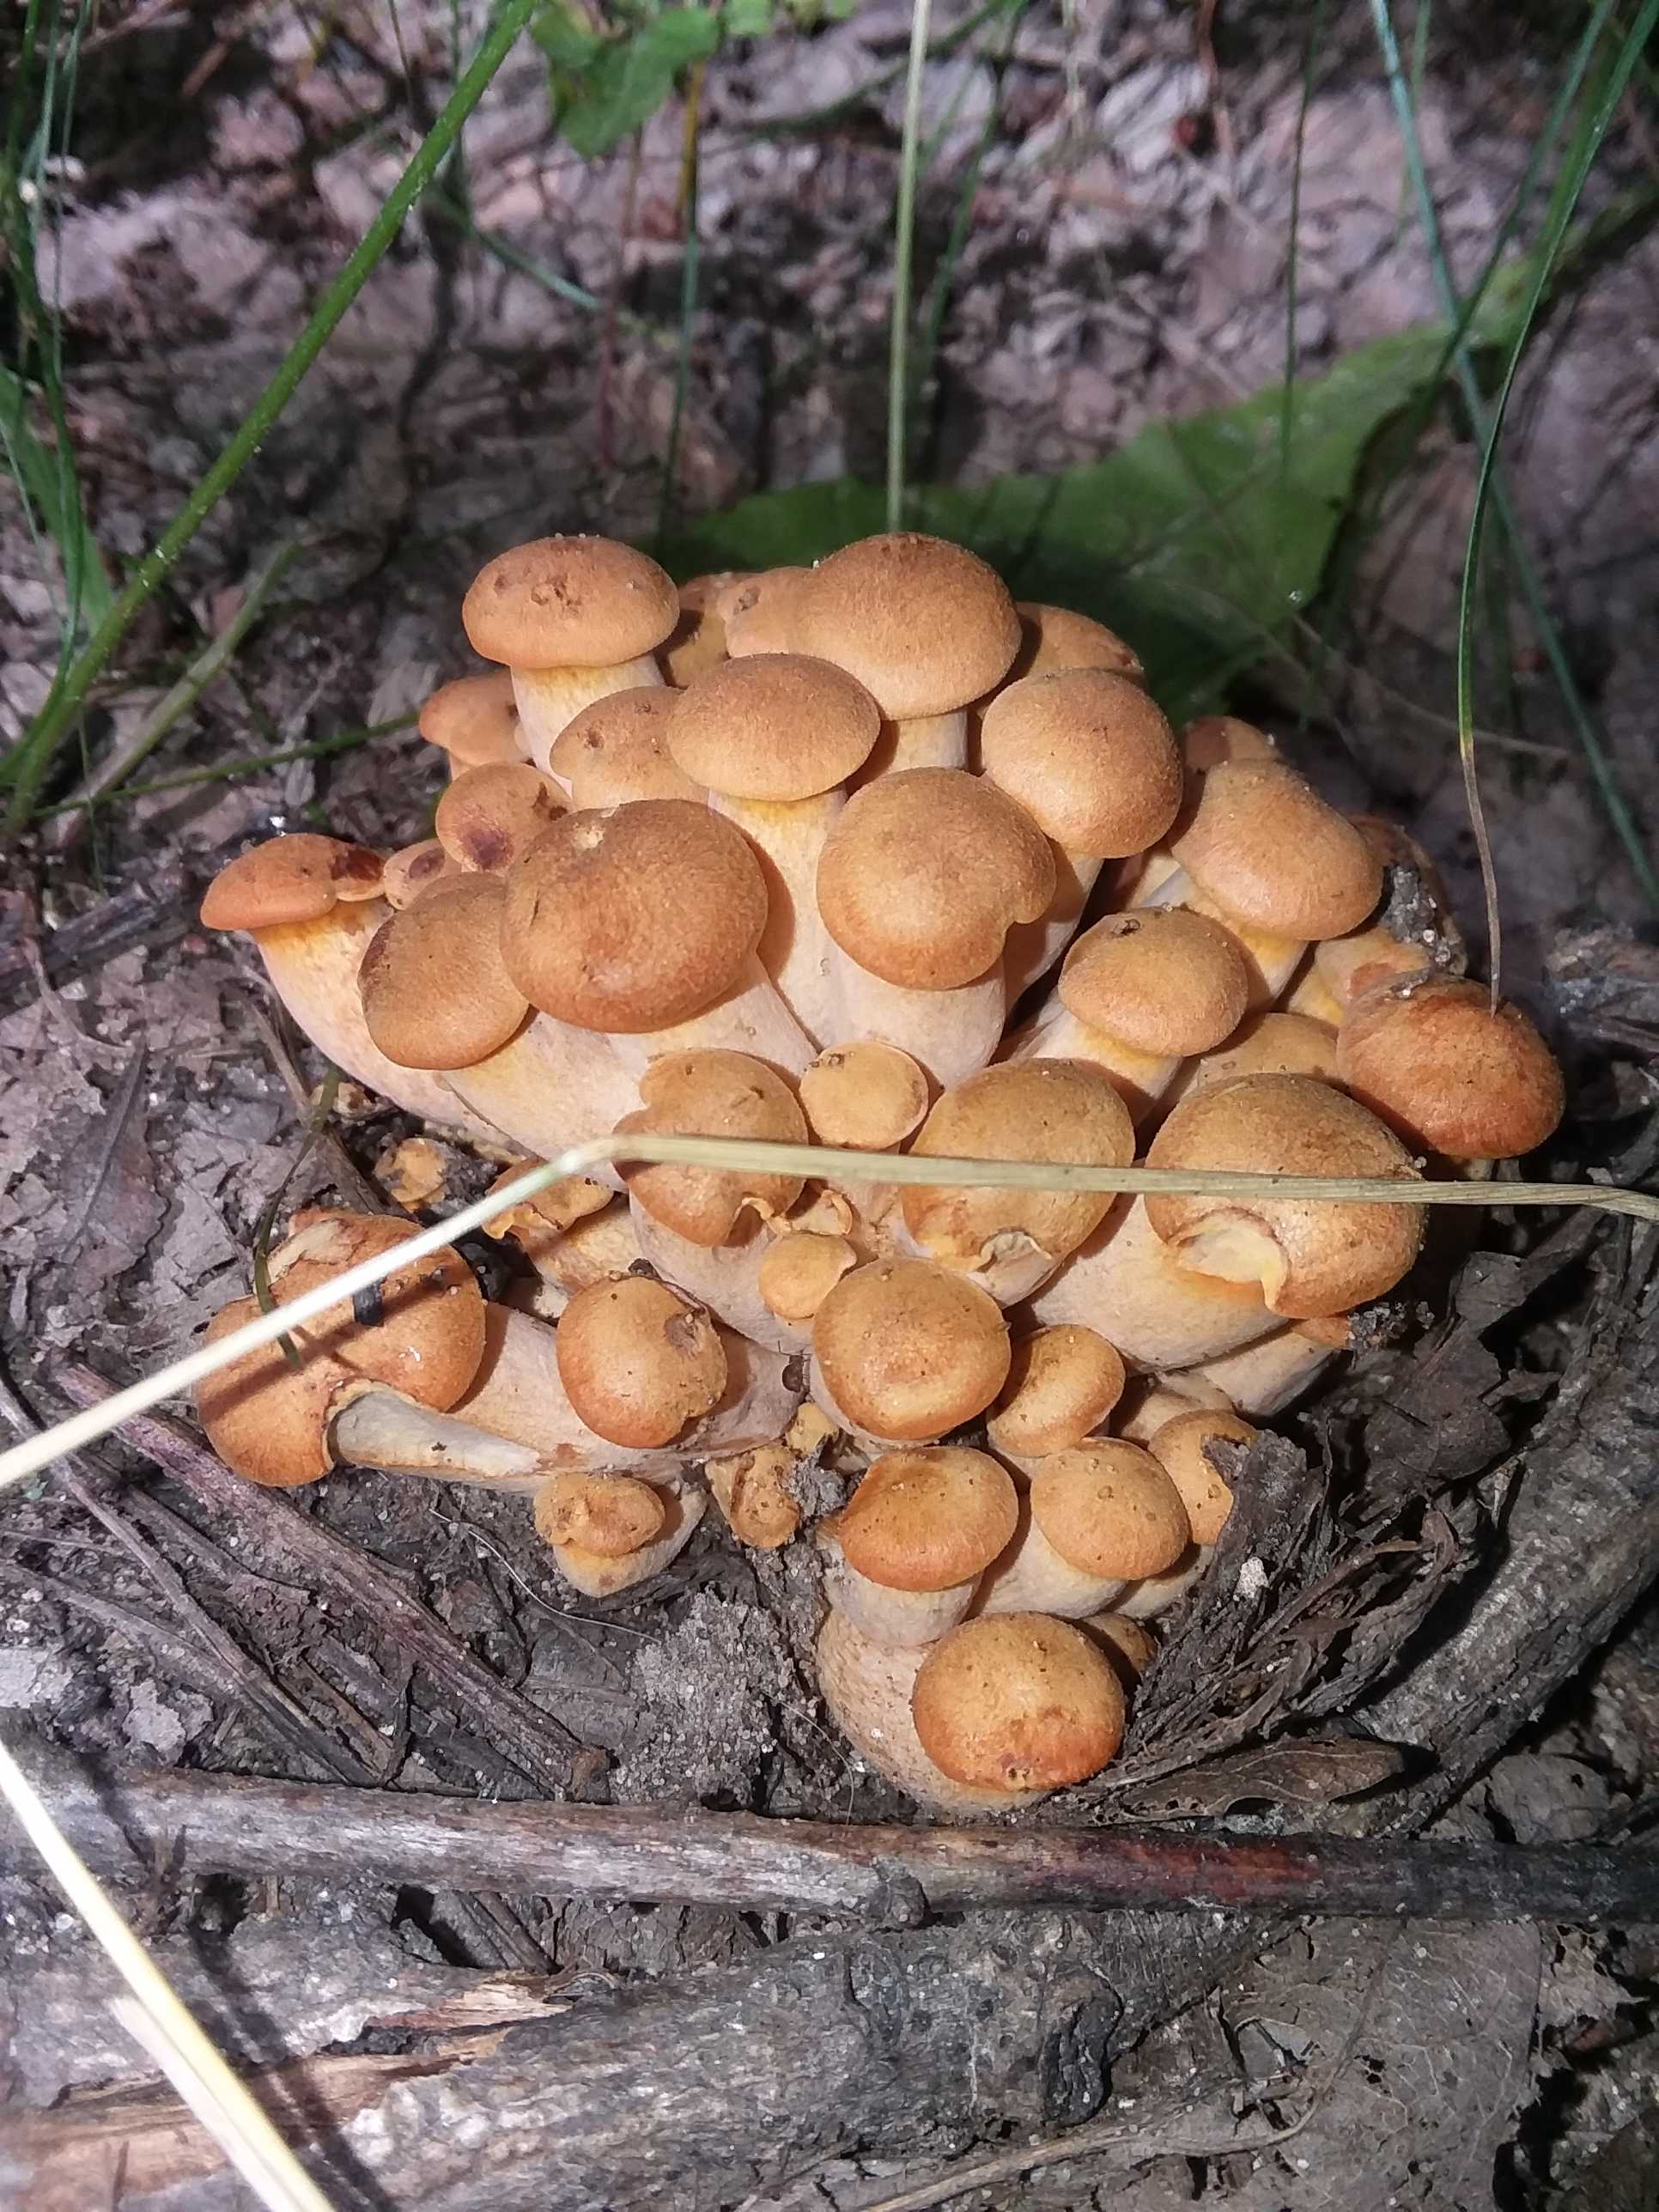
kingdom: Fungi
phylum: Basidiomycota
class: Agaricomycetes
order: Agaricales
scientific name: Agaricales
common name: champignonordenen
